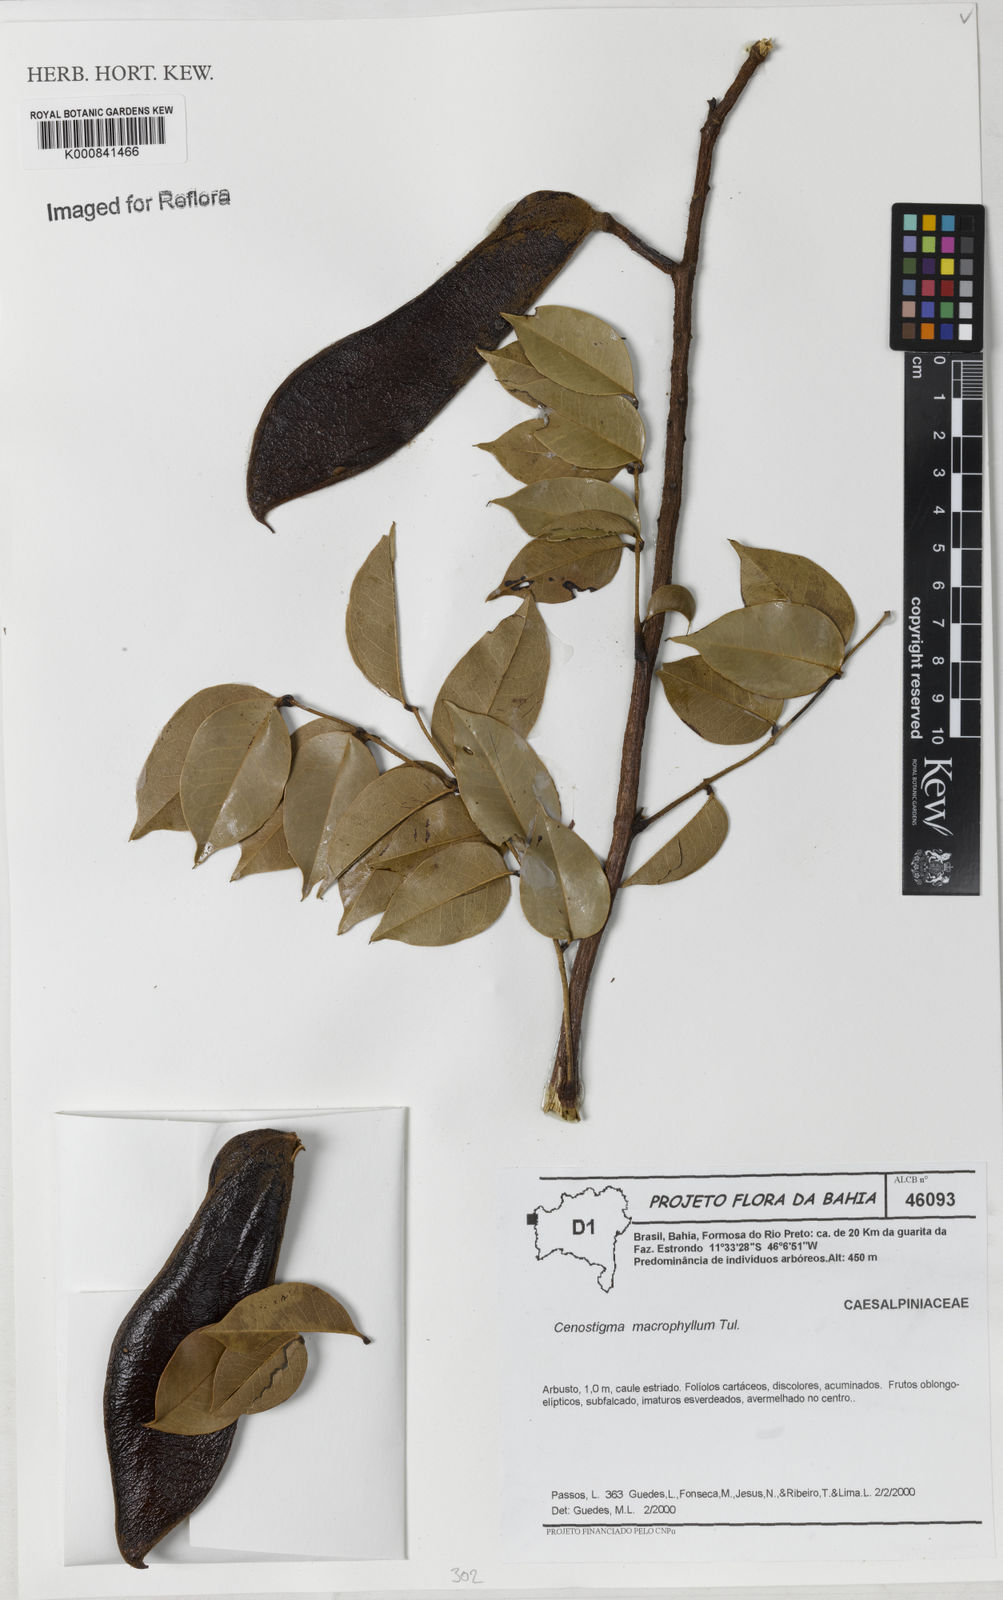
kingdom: Plantae
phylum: Tracheophyta
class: Magnoliopsida
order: Fabales
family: Fabaceae
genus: Cenostigma
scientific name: Cenostigma macrophyllum
